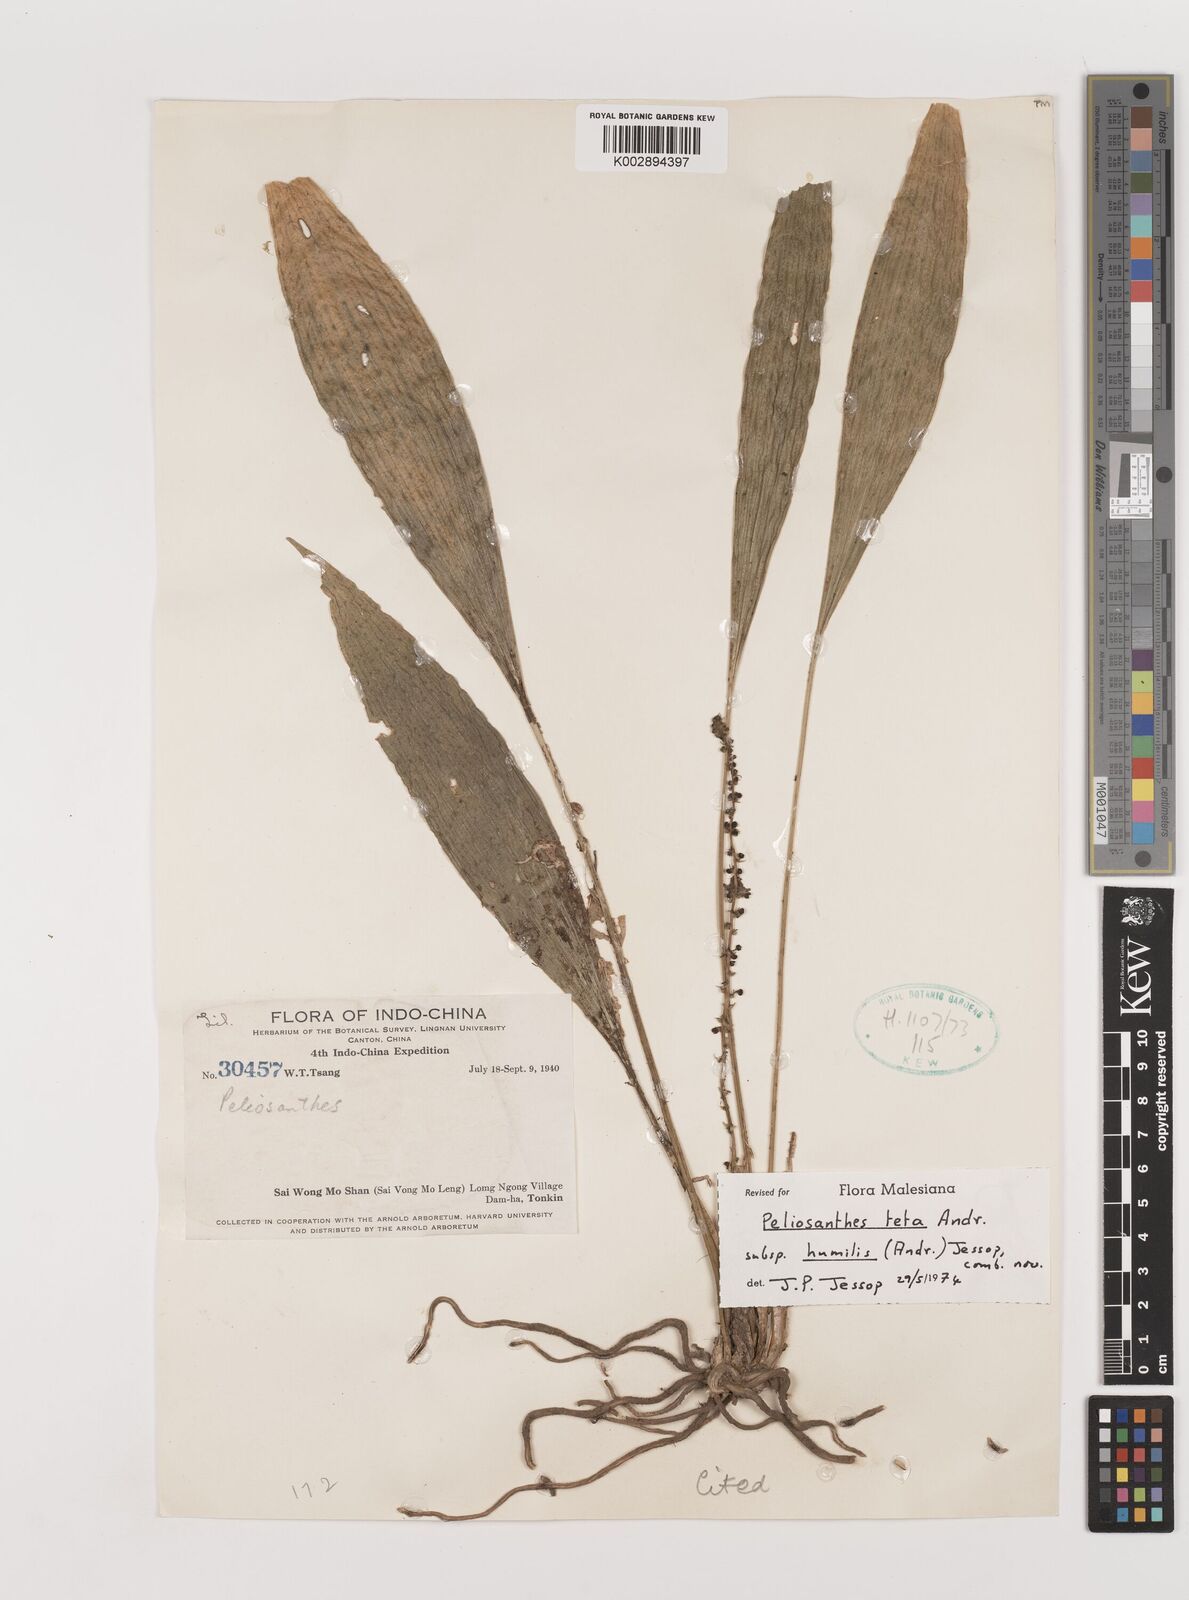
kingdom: Plantae
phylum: Tracheophyta
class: Liliopsida
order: Asparagales
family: Asparagaceae
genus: Peliosanthes
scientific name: Peliosanthes teta
